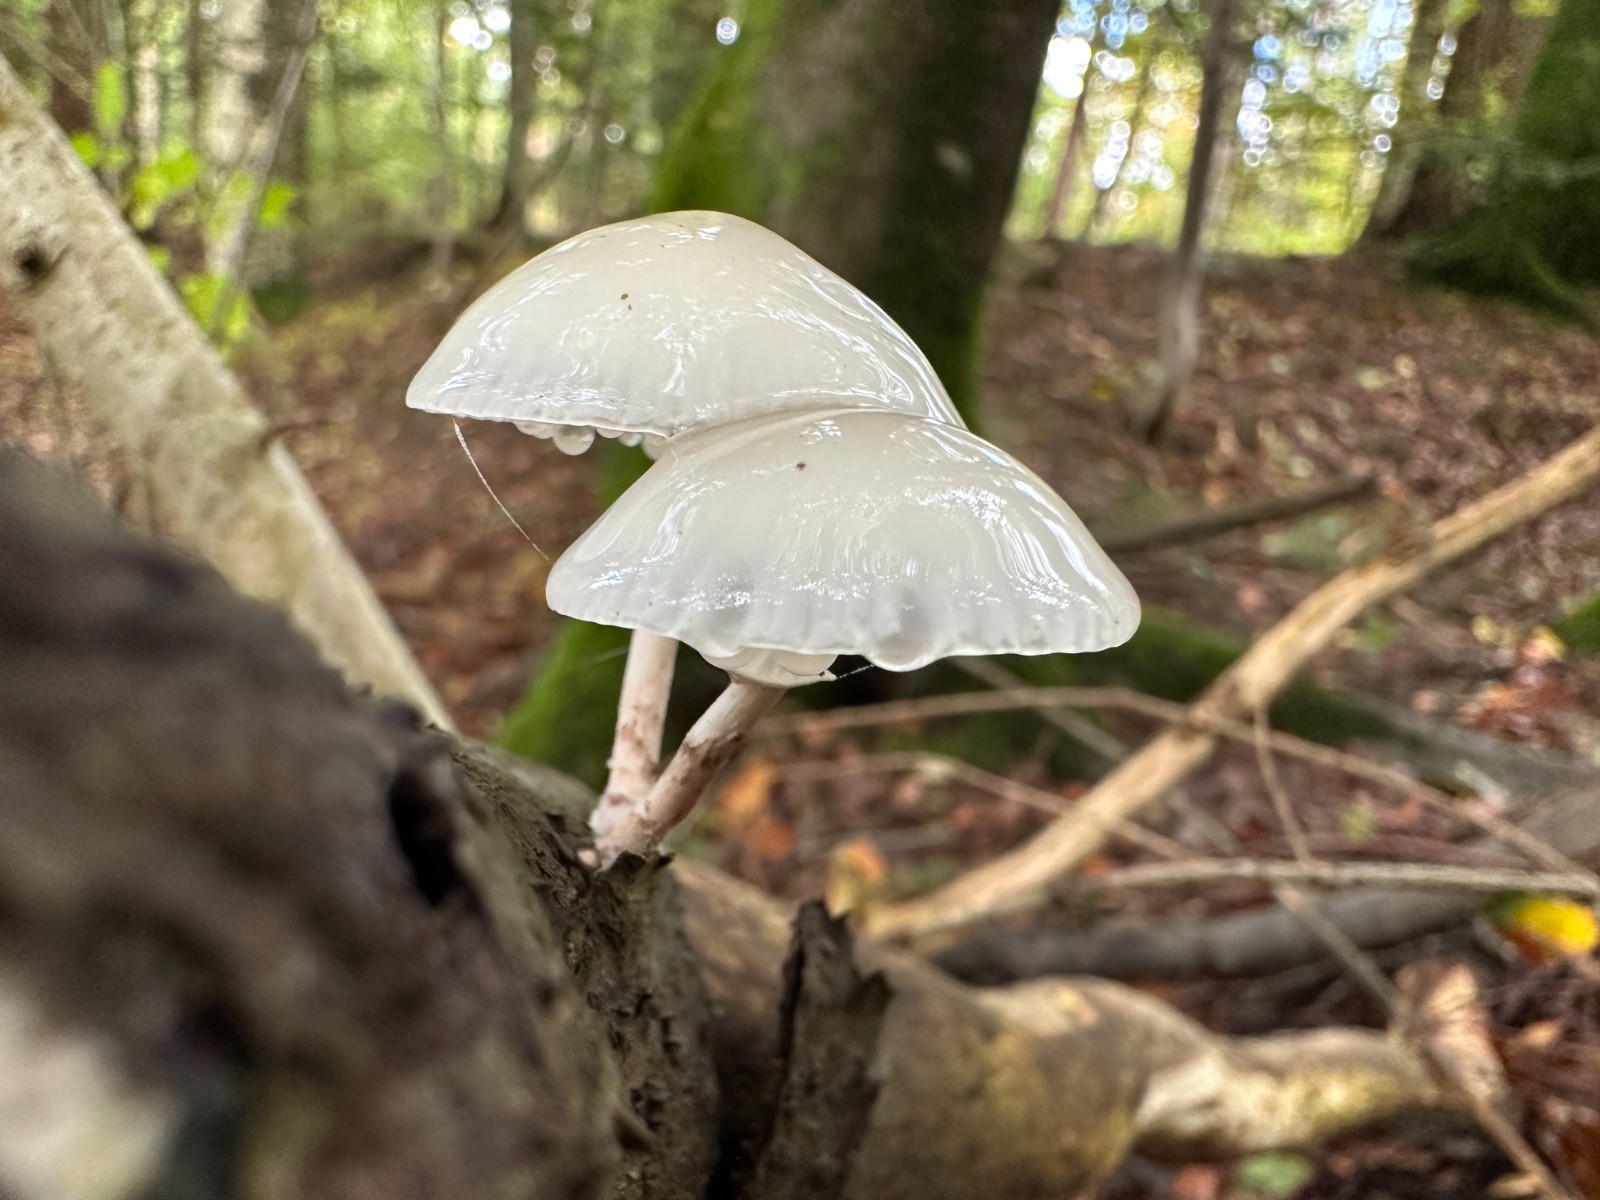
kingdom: Fungi
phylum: Basidiomycota
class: Agaricomycetes
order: Agaricales
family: Physalacriaceae
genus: Mucidula
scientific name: Mucidula mucida
